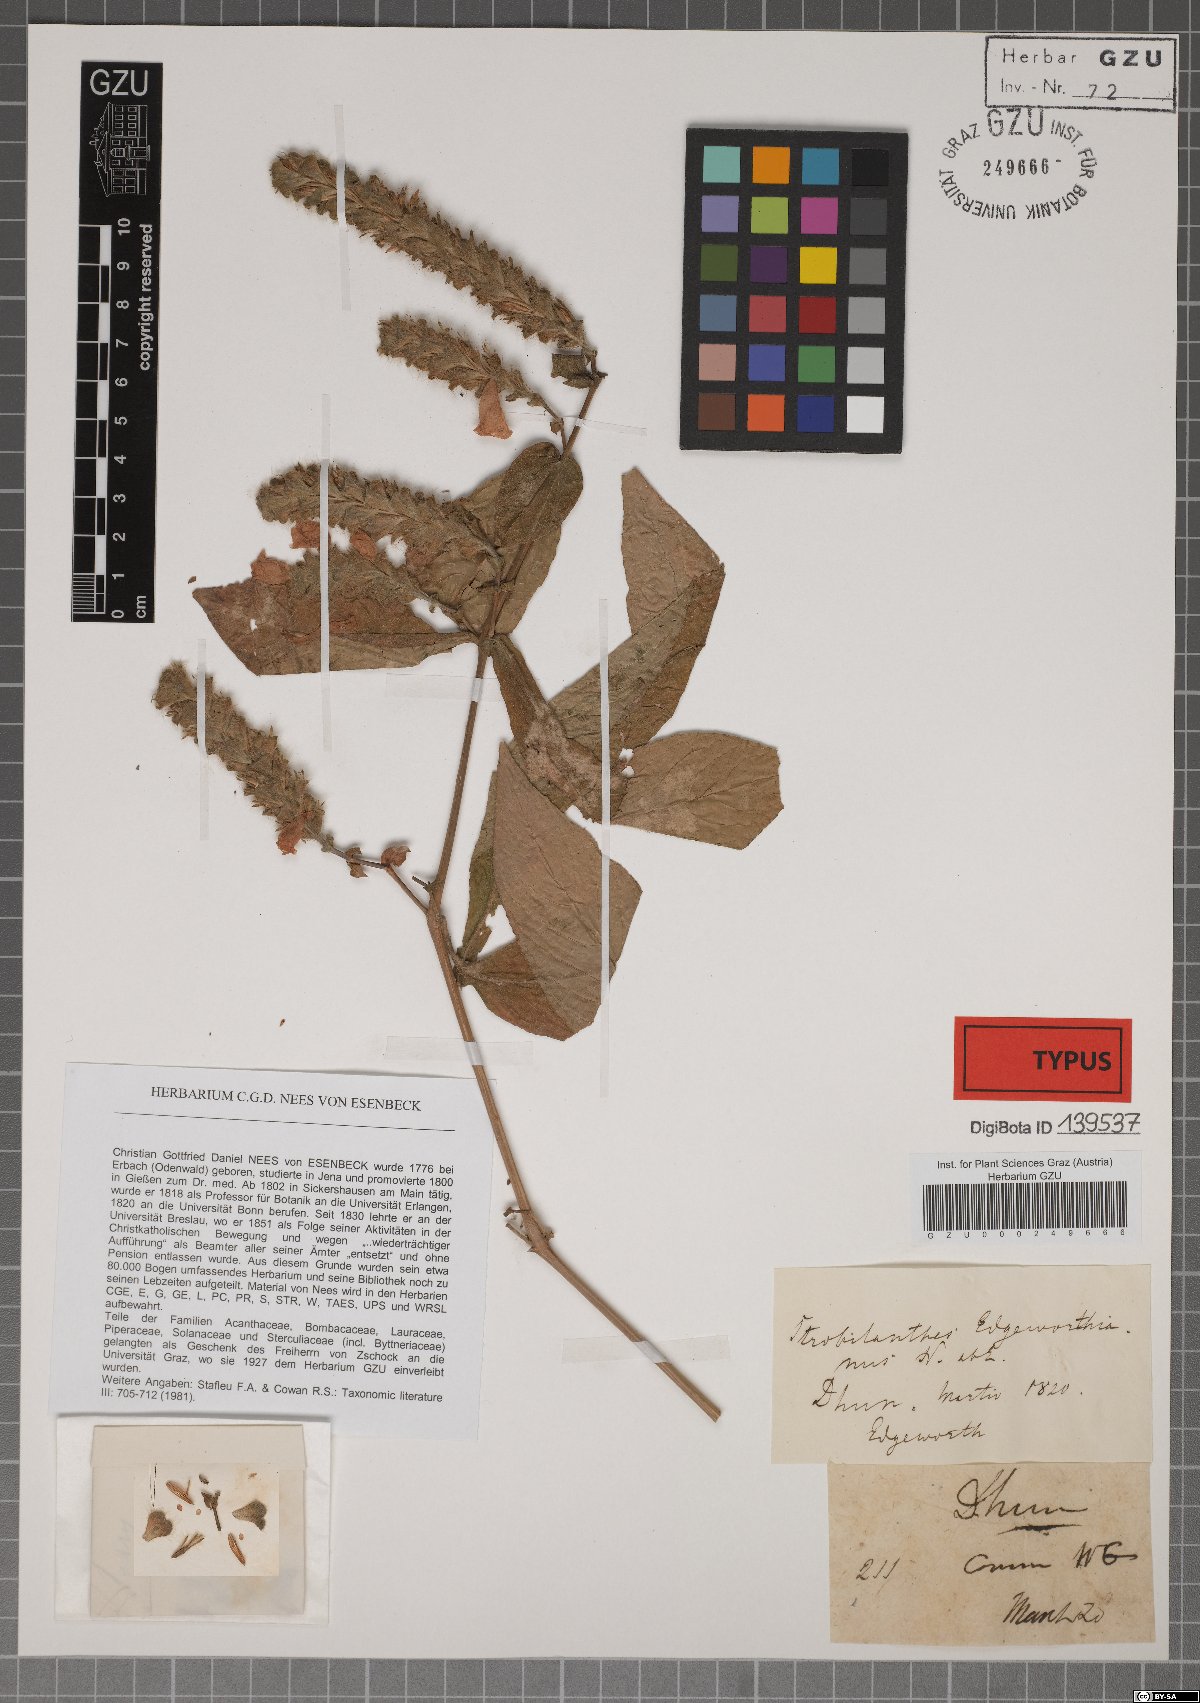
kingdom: Plantae
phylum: Tracheophyta
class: Magnoliopsida
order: Lamiales
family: Acanthaceae
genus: Strobilanthes
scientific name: Strobilanthes auriculata
